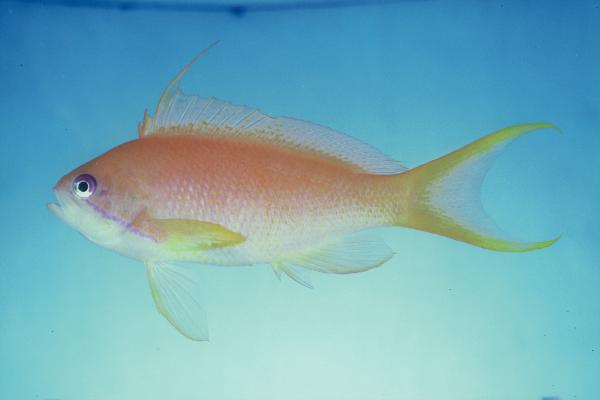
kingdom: Animalia
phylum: Chordata
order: Perciformes
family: Serranidae
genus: Pseudanthias
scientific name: Pseudanthias squamipinnis
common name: Scalefin anthias
